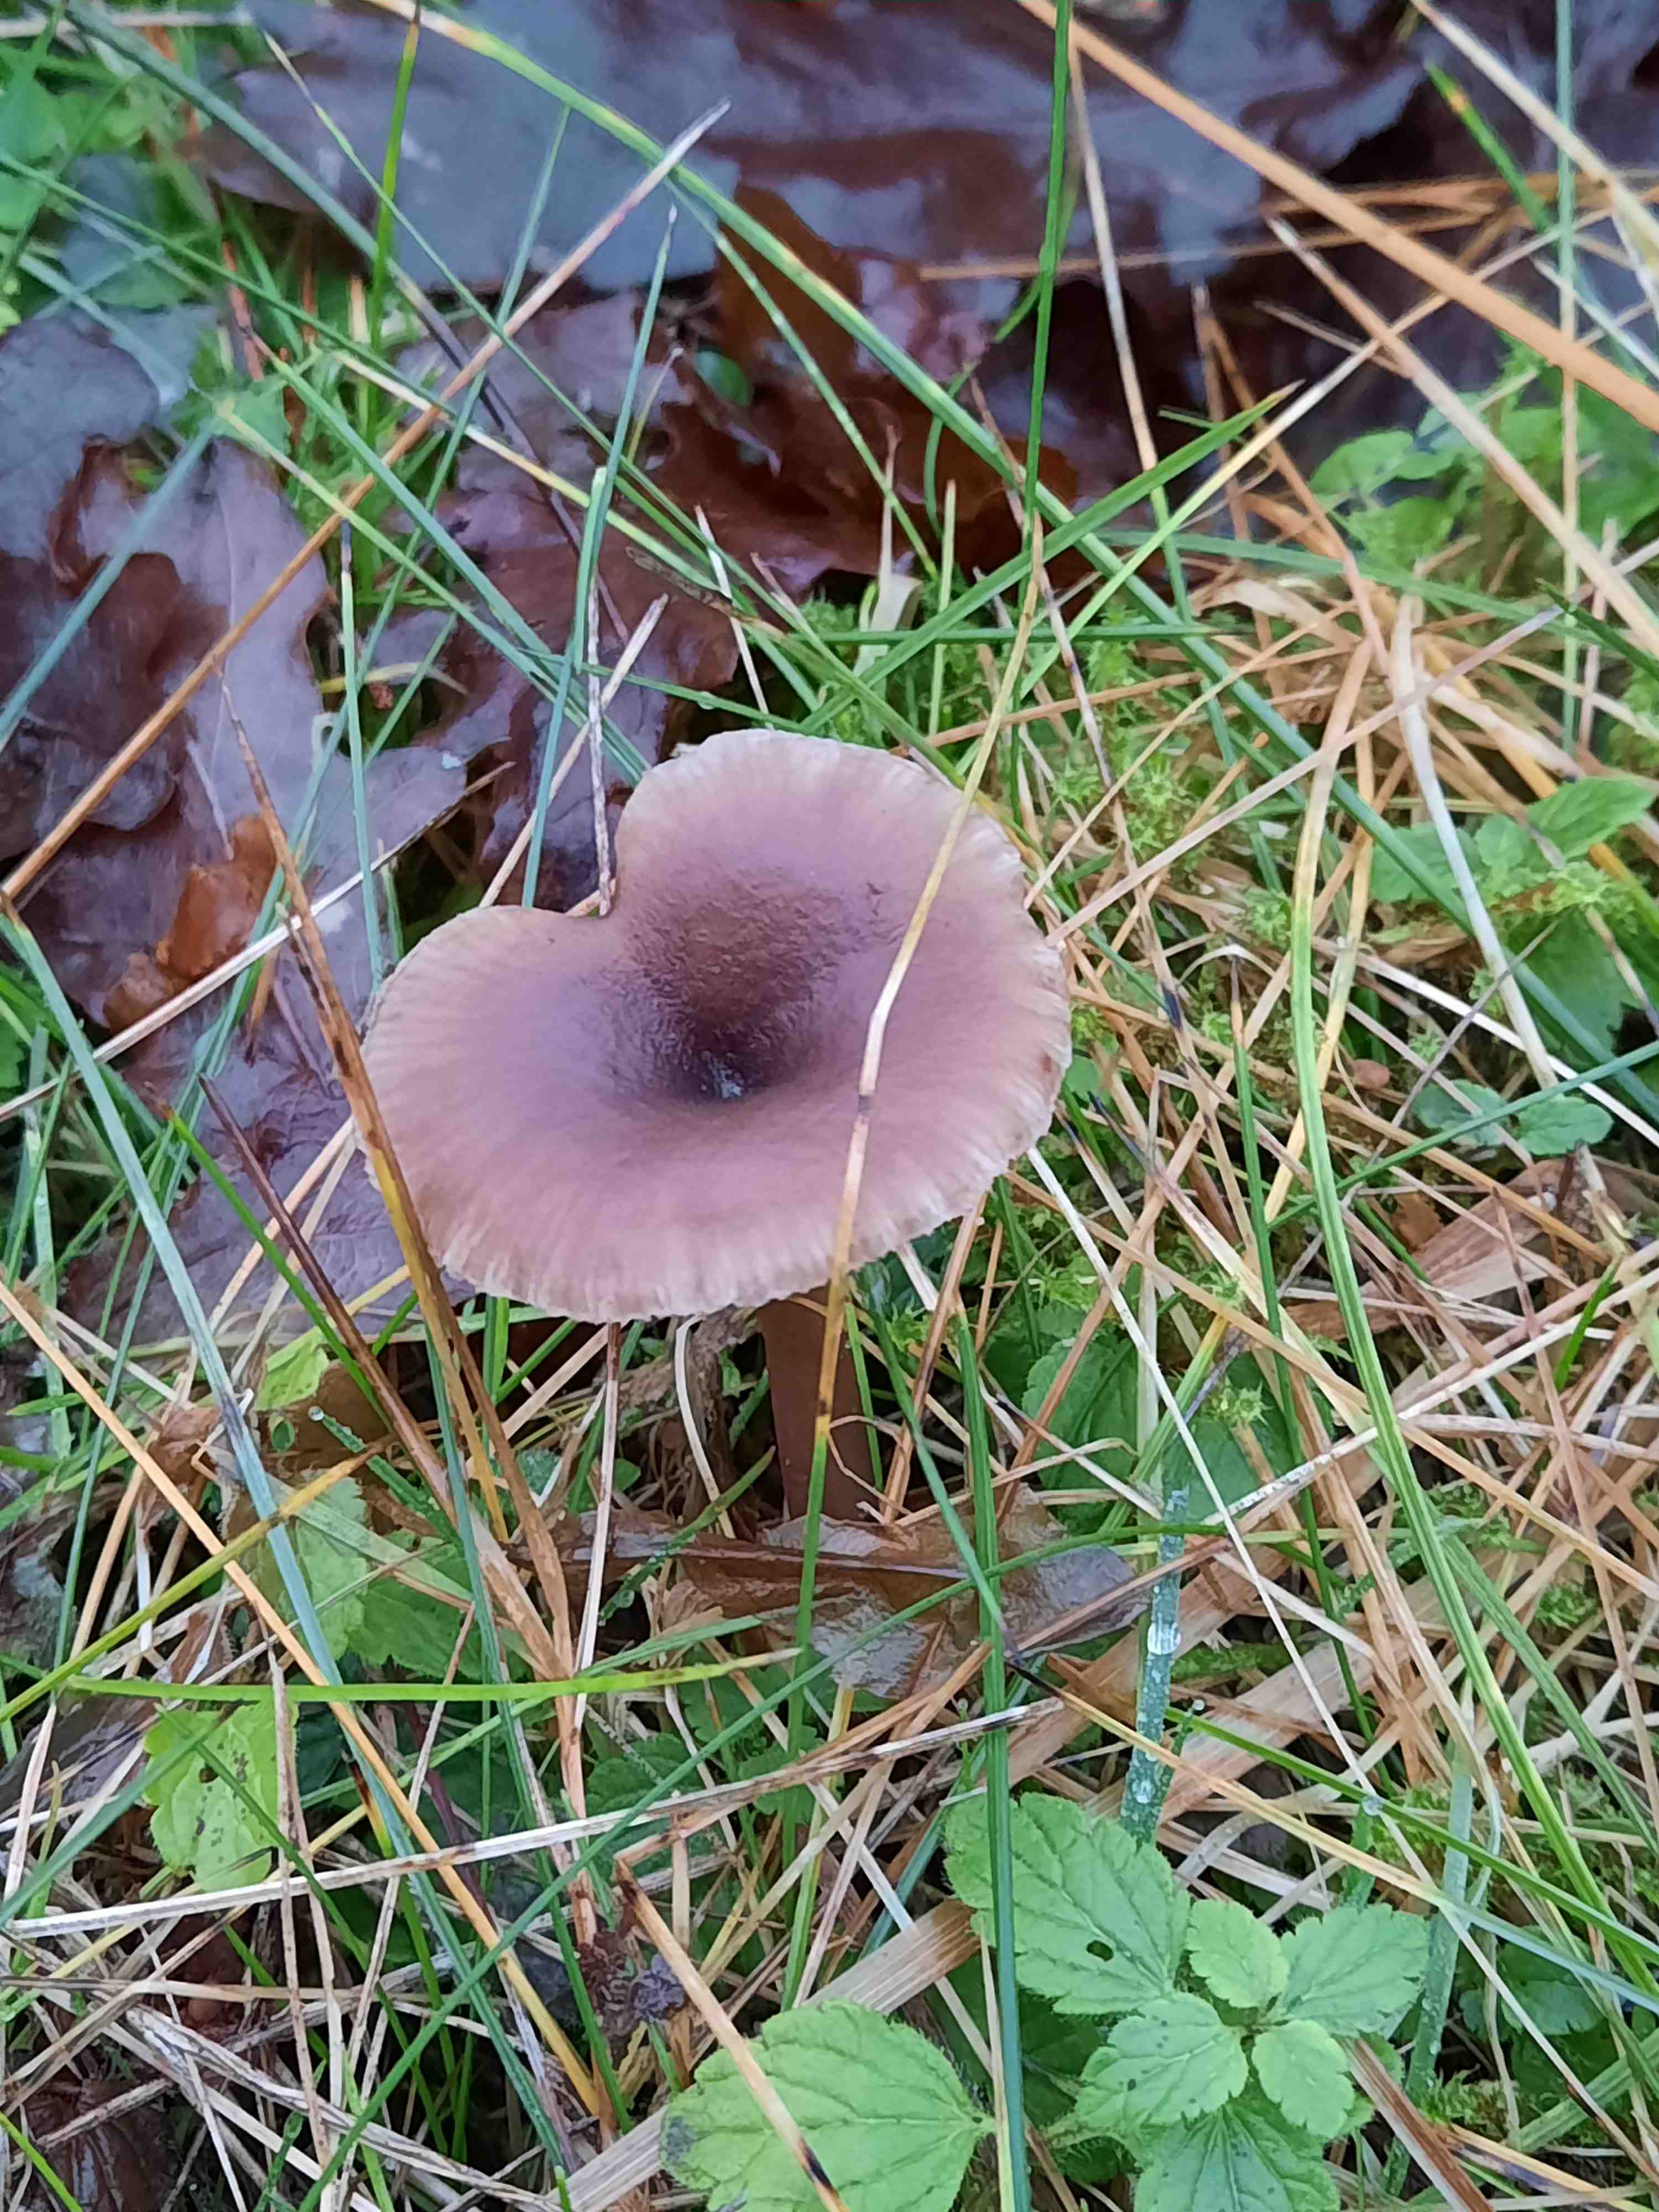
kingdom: Fungi
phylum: Basidiomycota
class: Agaricomycetes
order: Agaricales
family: Pseudoclitocybaceae
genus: Pseudoclitocybe
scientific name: Pseudoclitocybe cyathiformis
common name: almindelig bægertragthat
